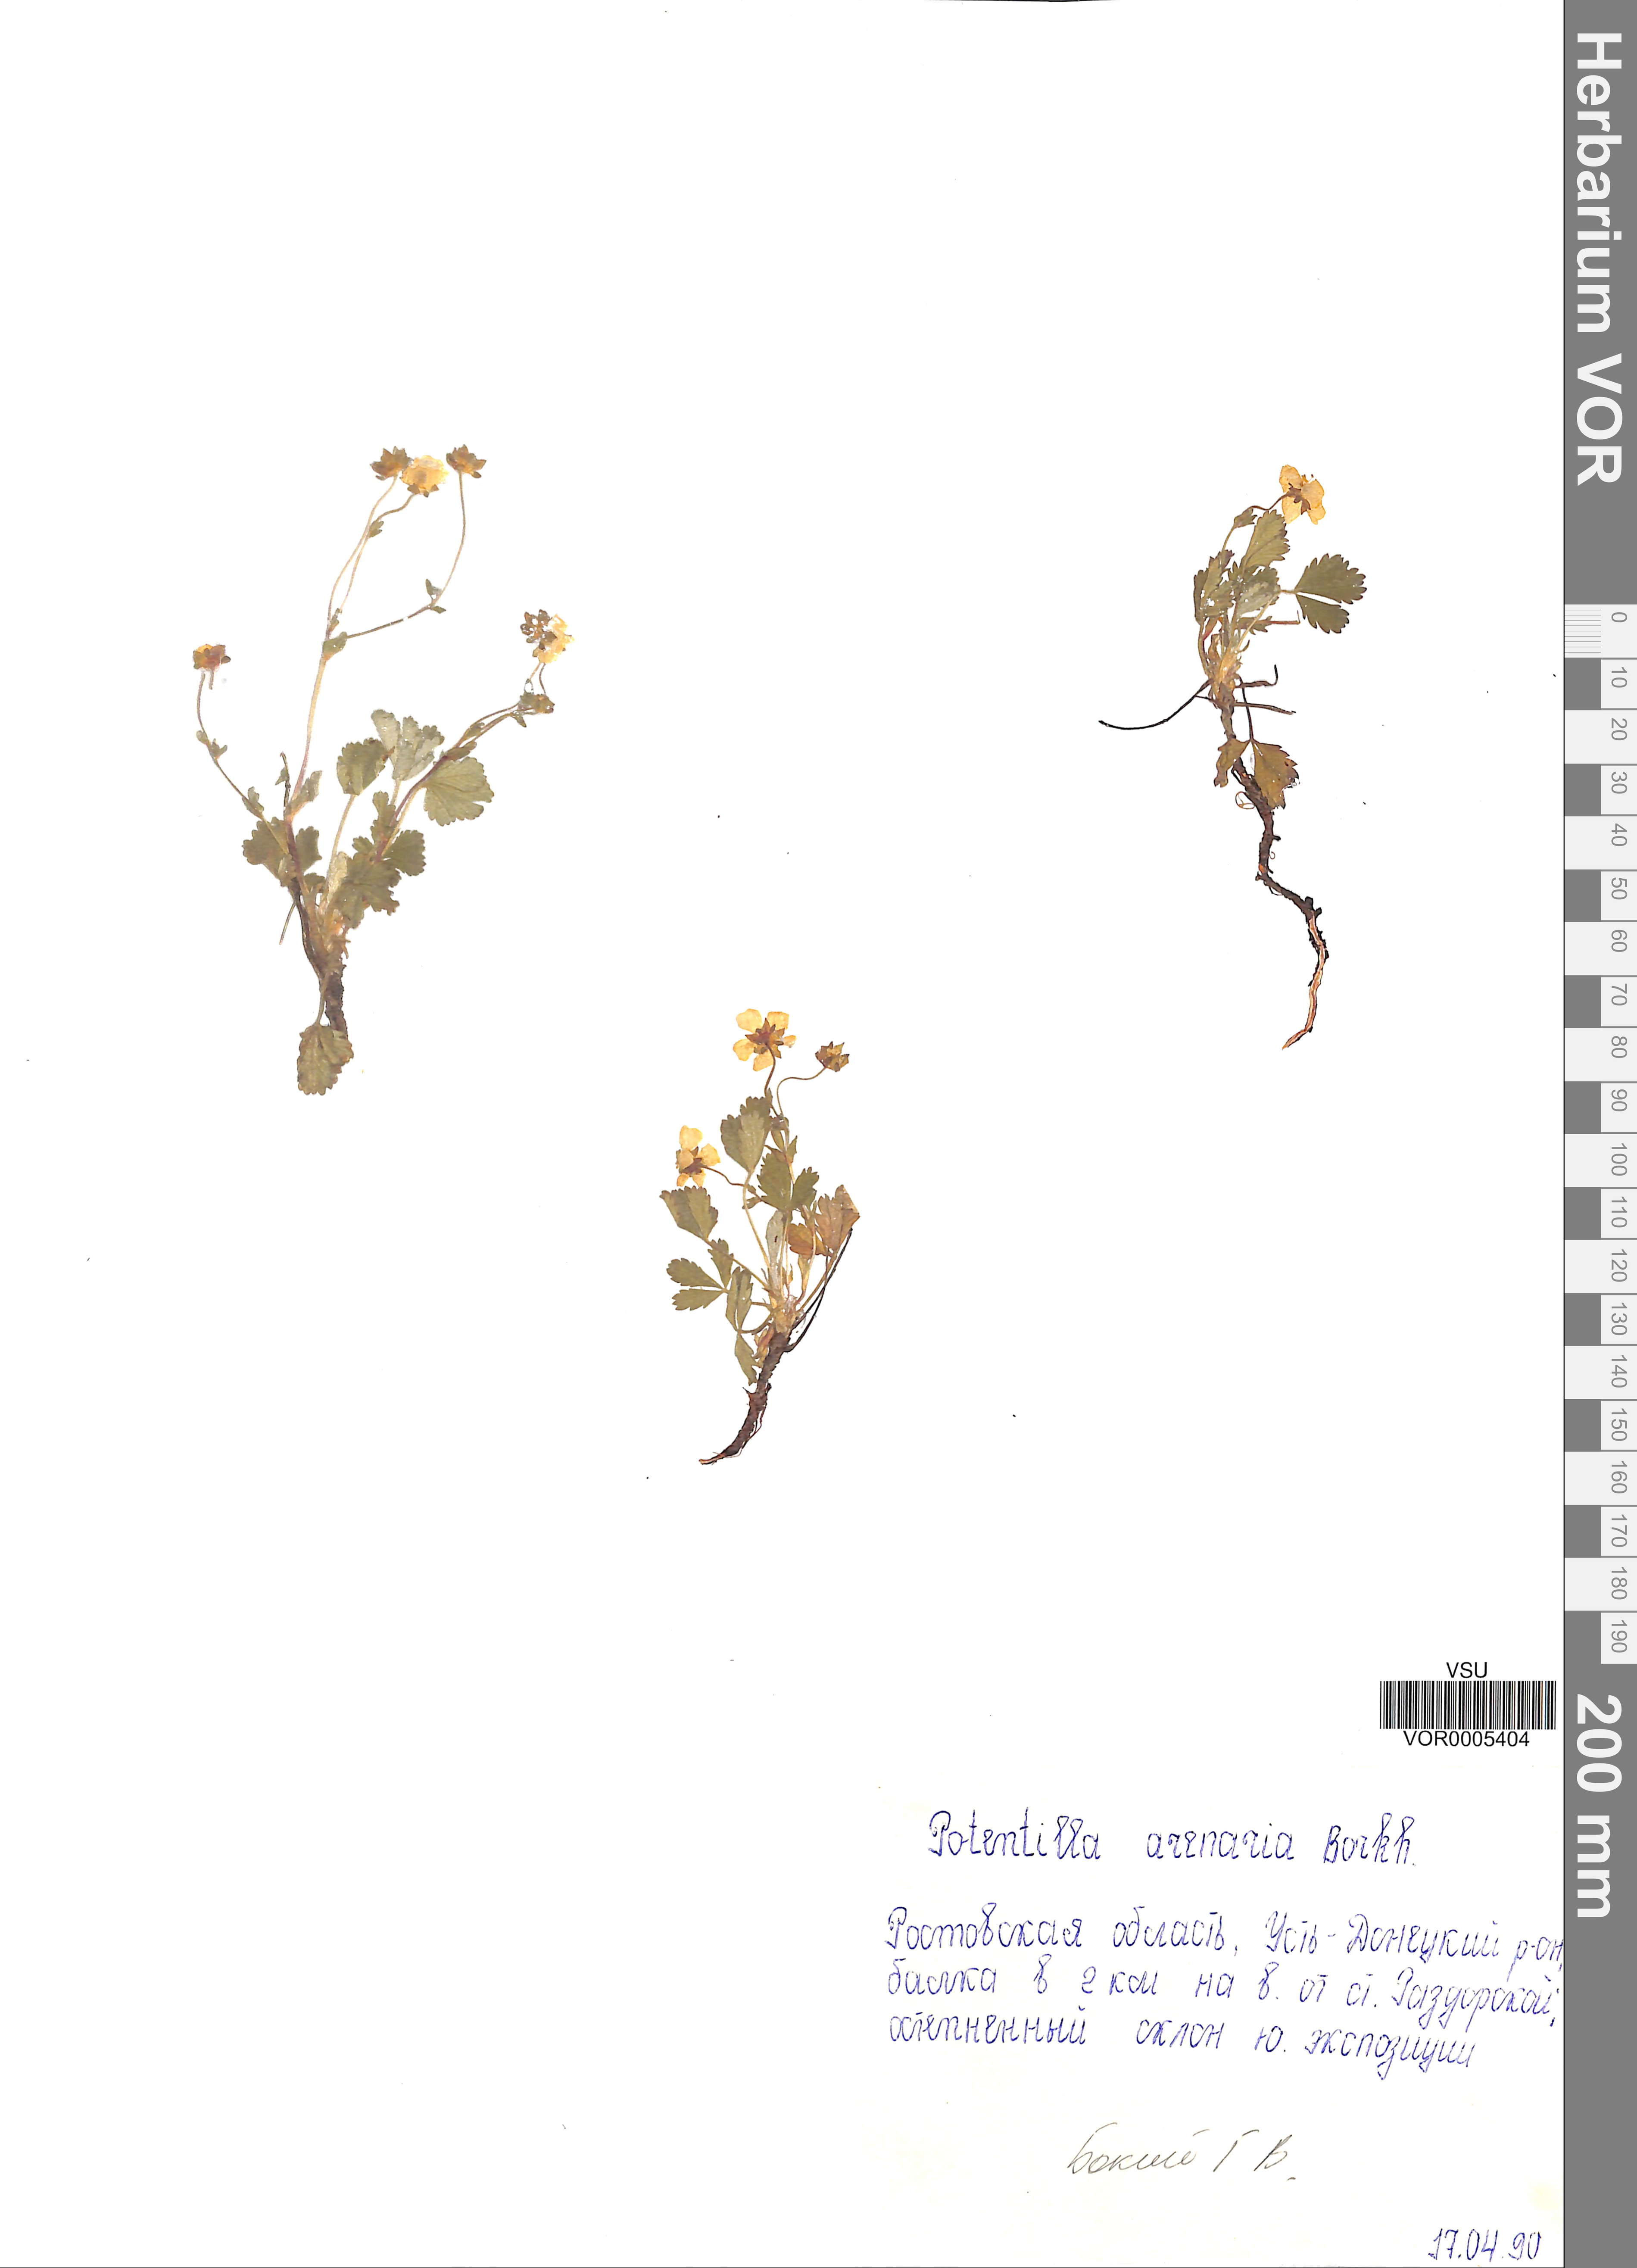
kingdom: Plantae
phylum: Tracheophyta
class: Magnoliopsida
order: Rosales
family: Rosaceae
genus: Potentilla
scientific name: Potentilla cinerea
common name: Ashy cinquefoil
